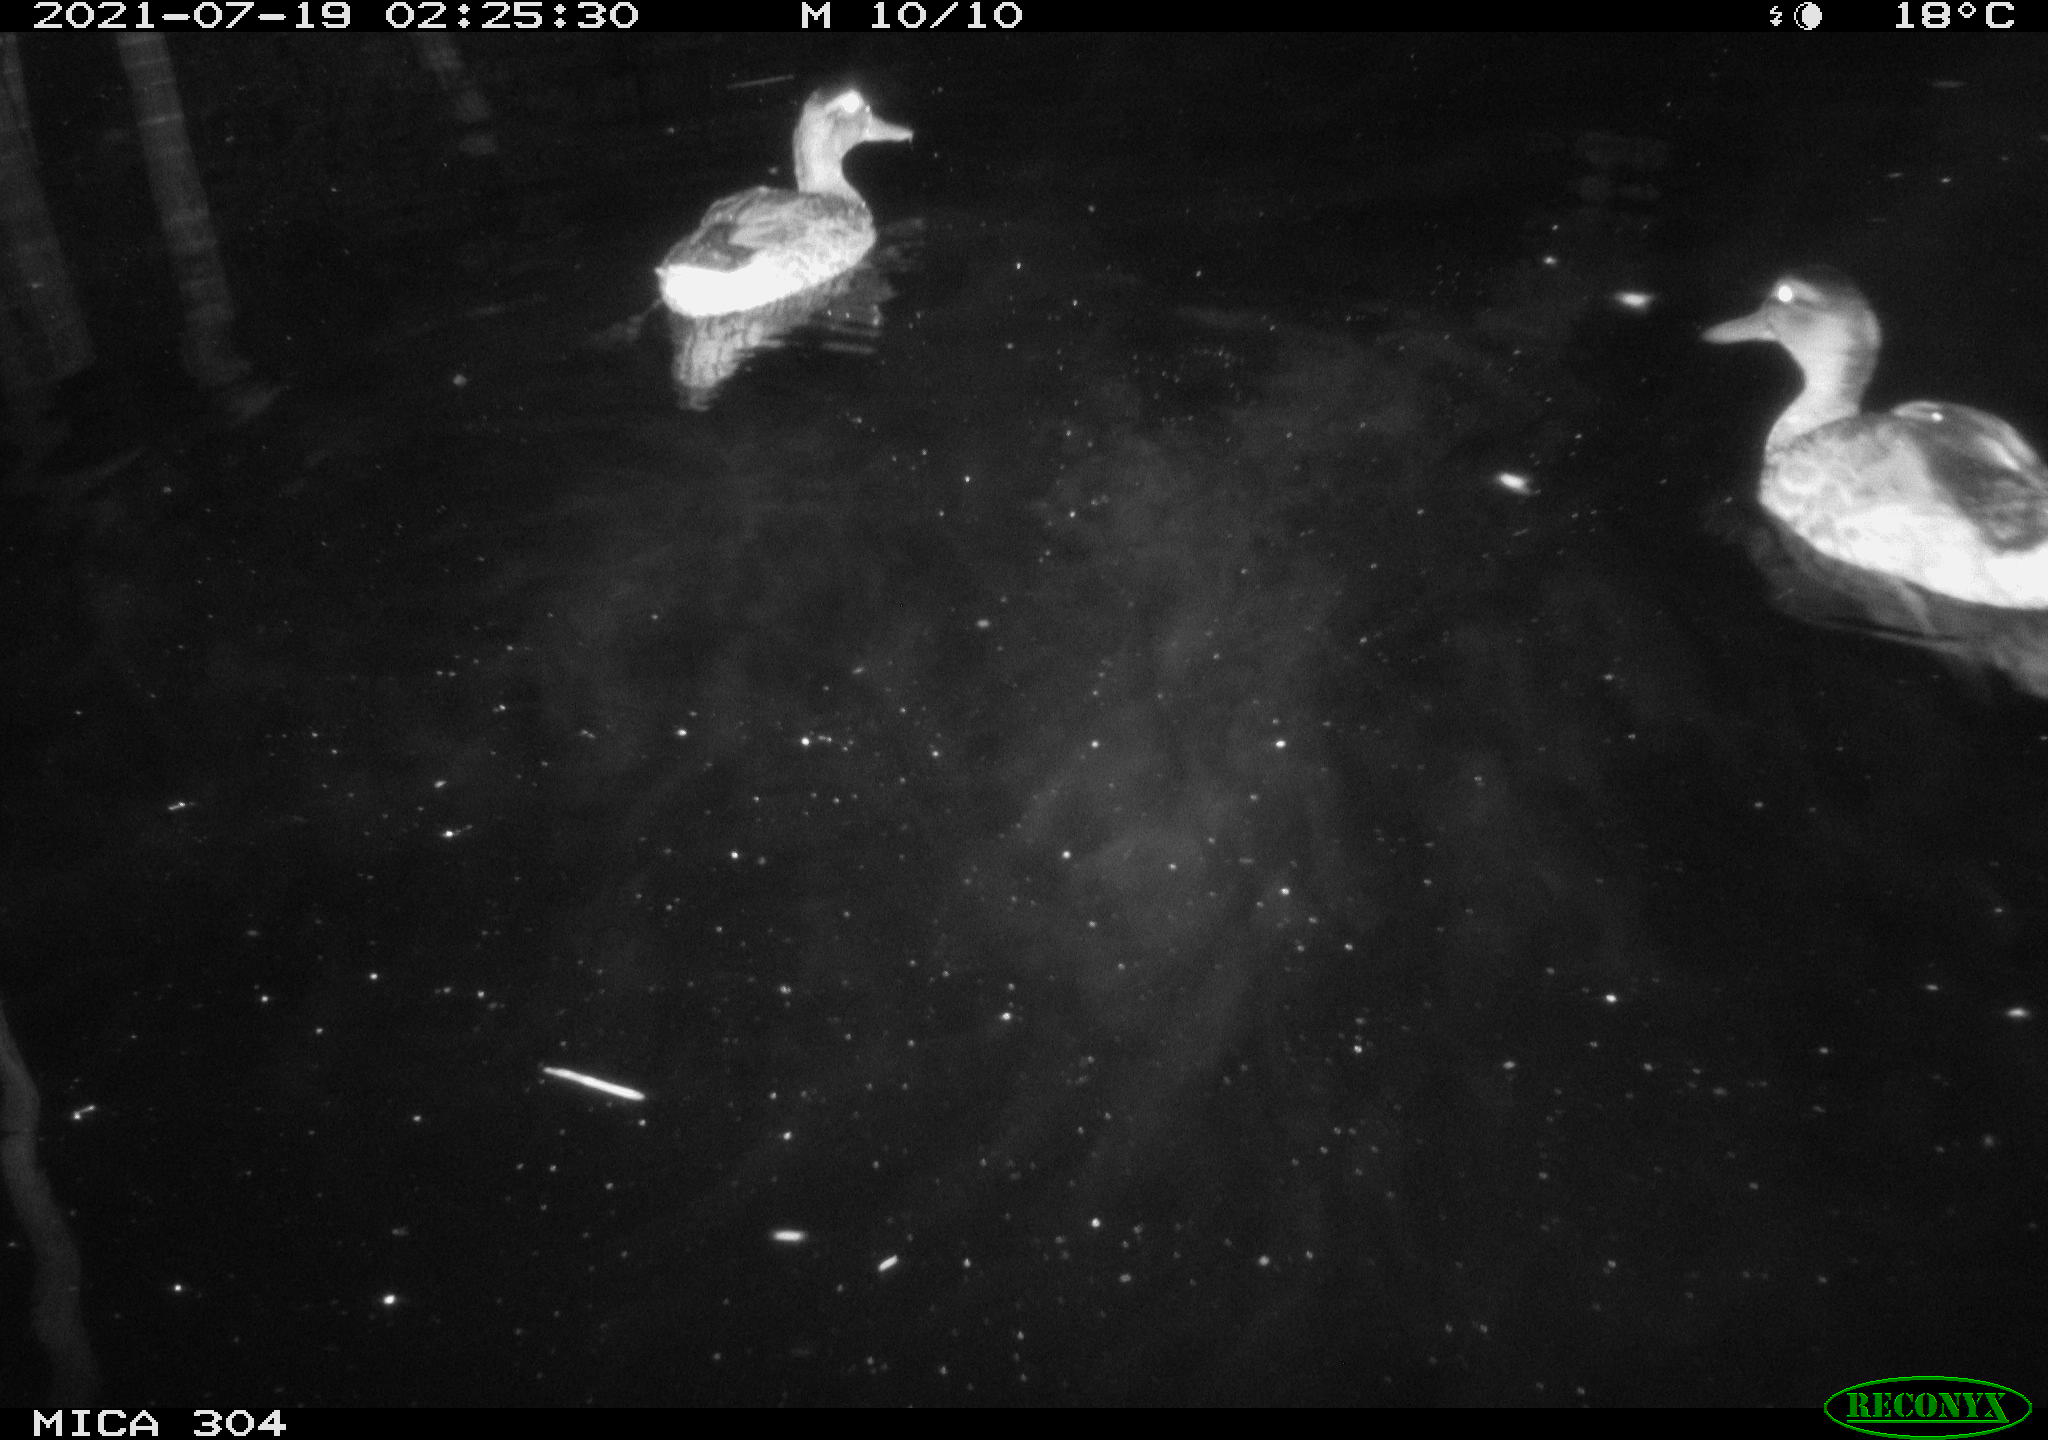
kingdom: Animalia
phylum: Chordata
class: Aves
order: Anseriformes
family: Anatidae
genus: Mareca
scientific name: Mareca strepera
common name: Gadwall
